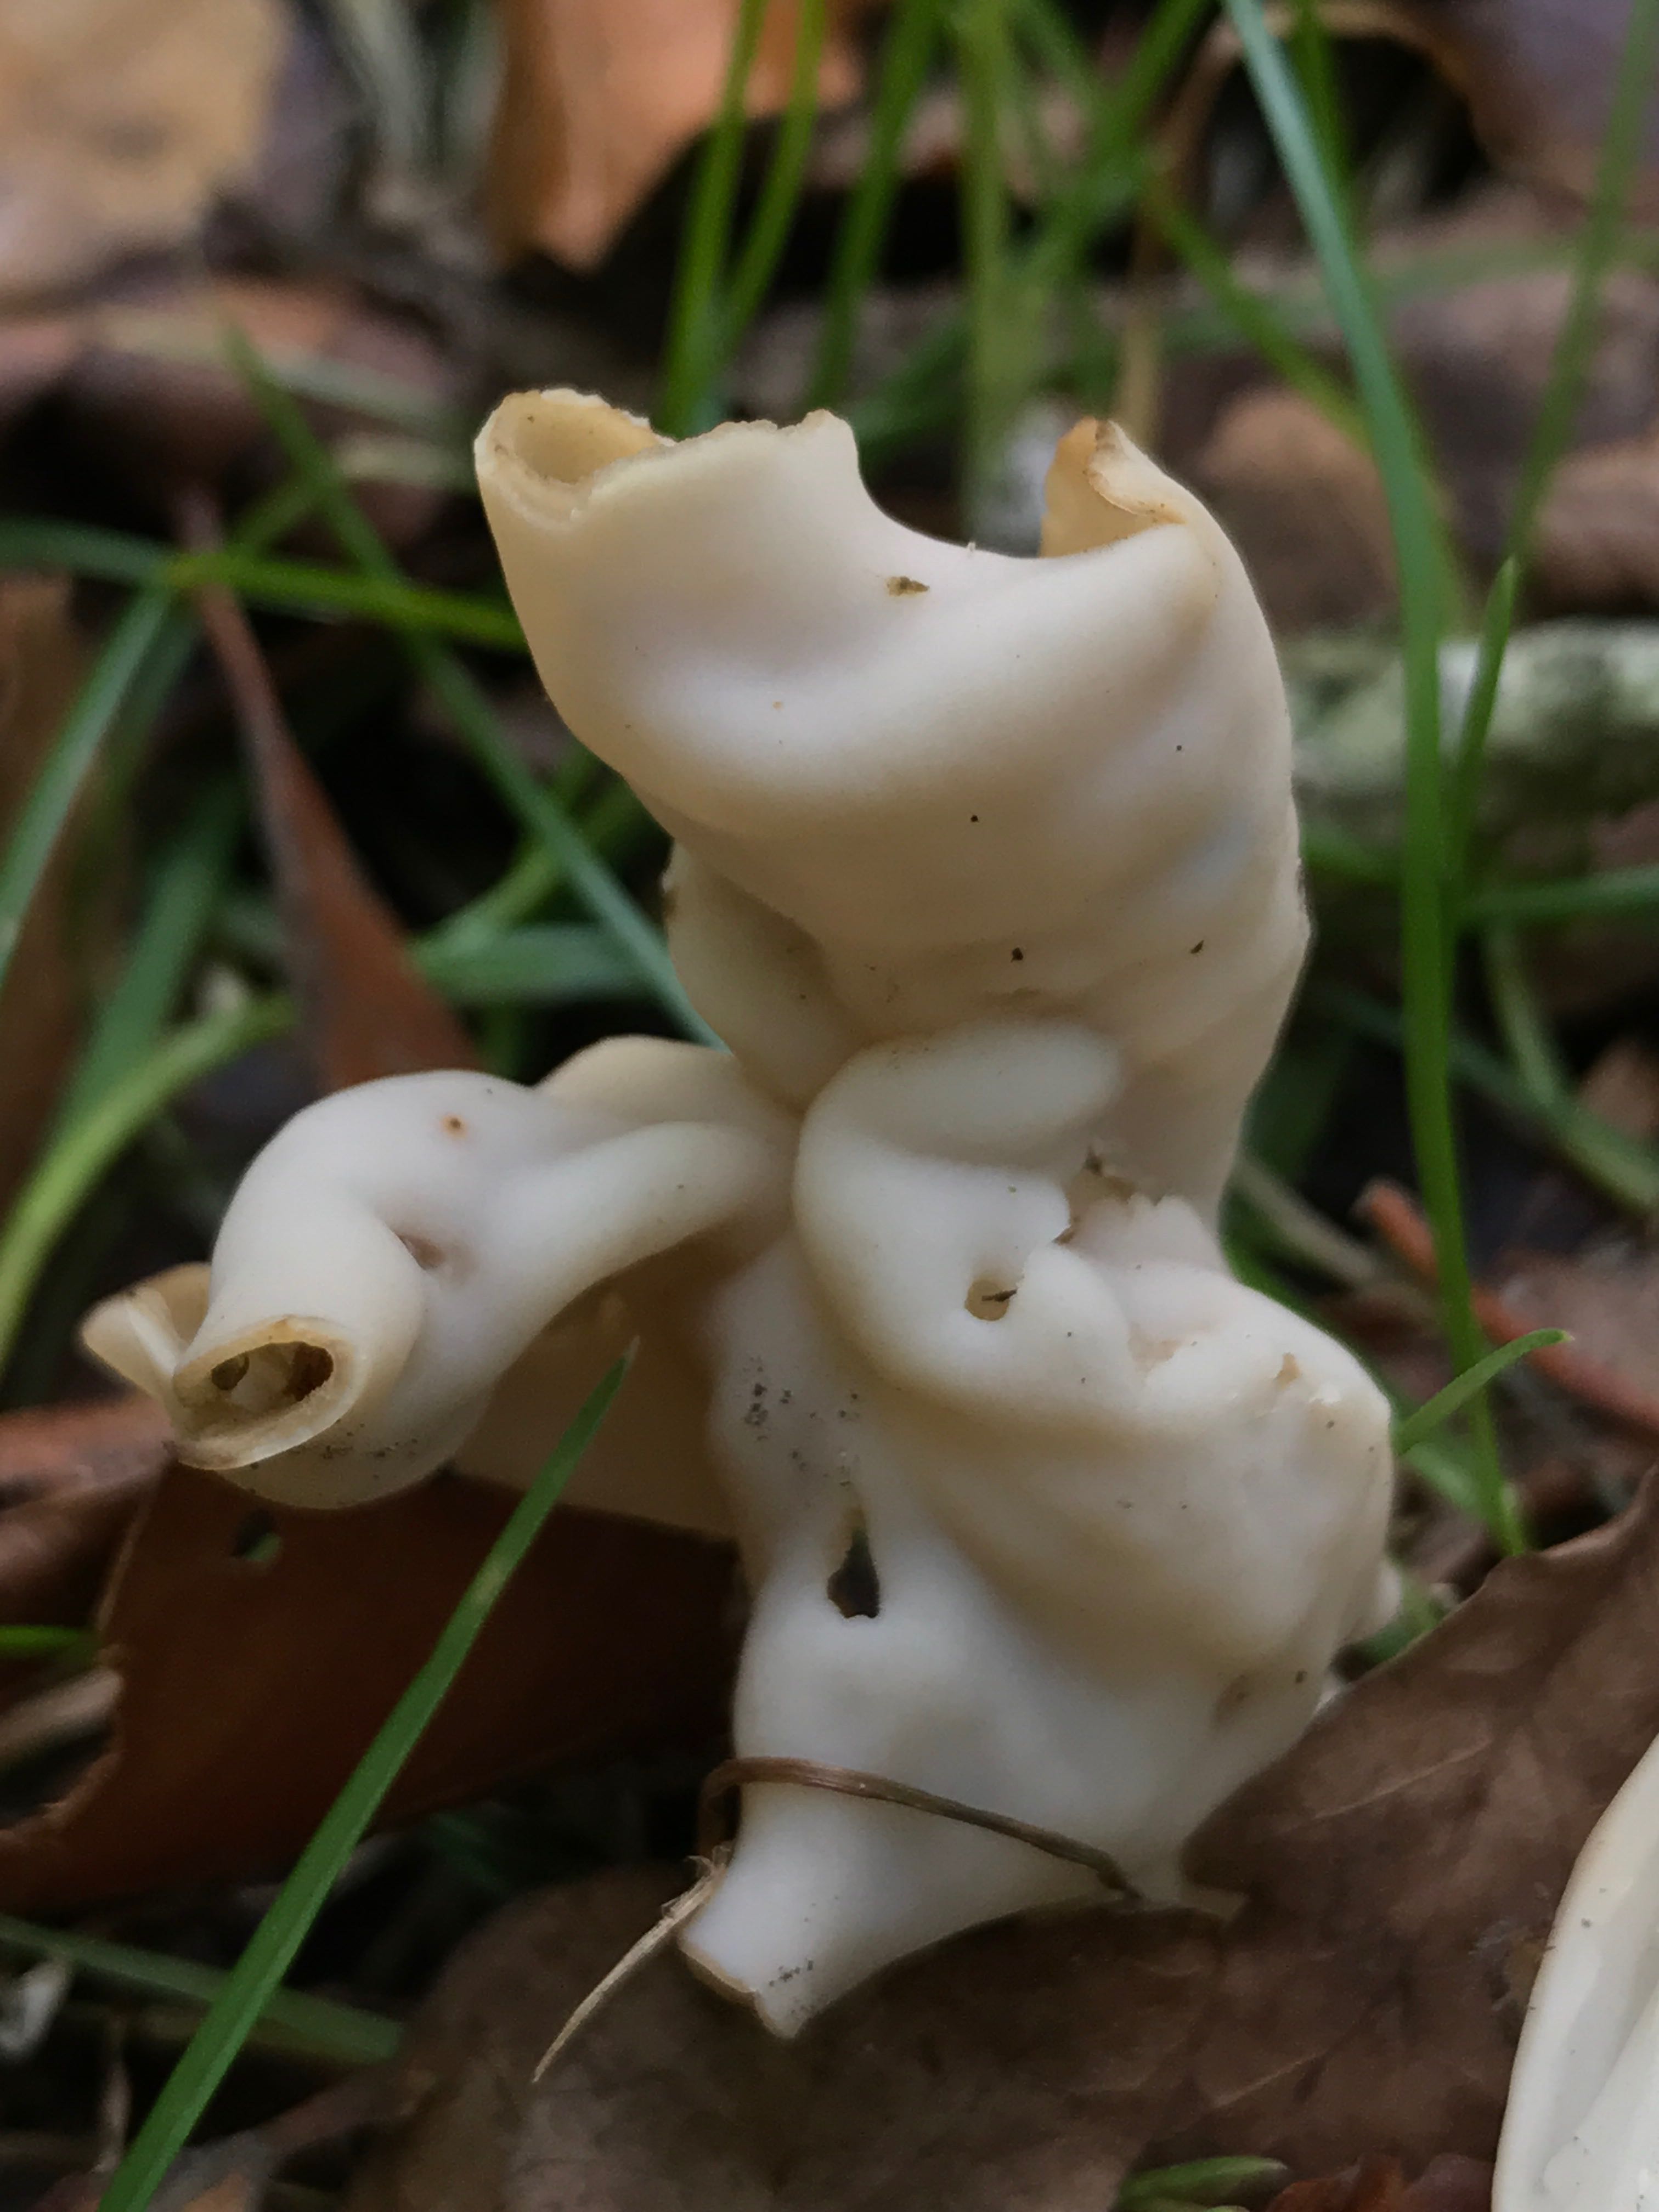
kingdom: Fungi
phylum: Ascomycota
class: Pezizomycetes
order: Pezizales
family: Helvellaceae
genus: Helvella
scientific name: Helvella crispa
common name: kruset foldhat
